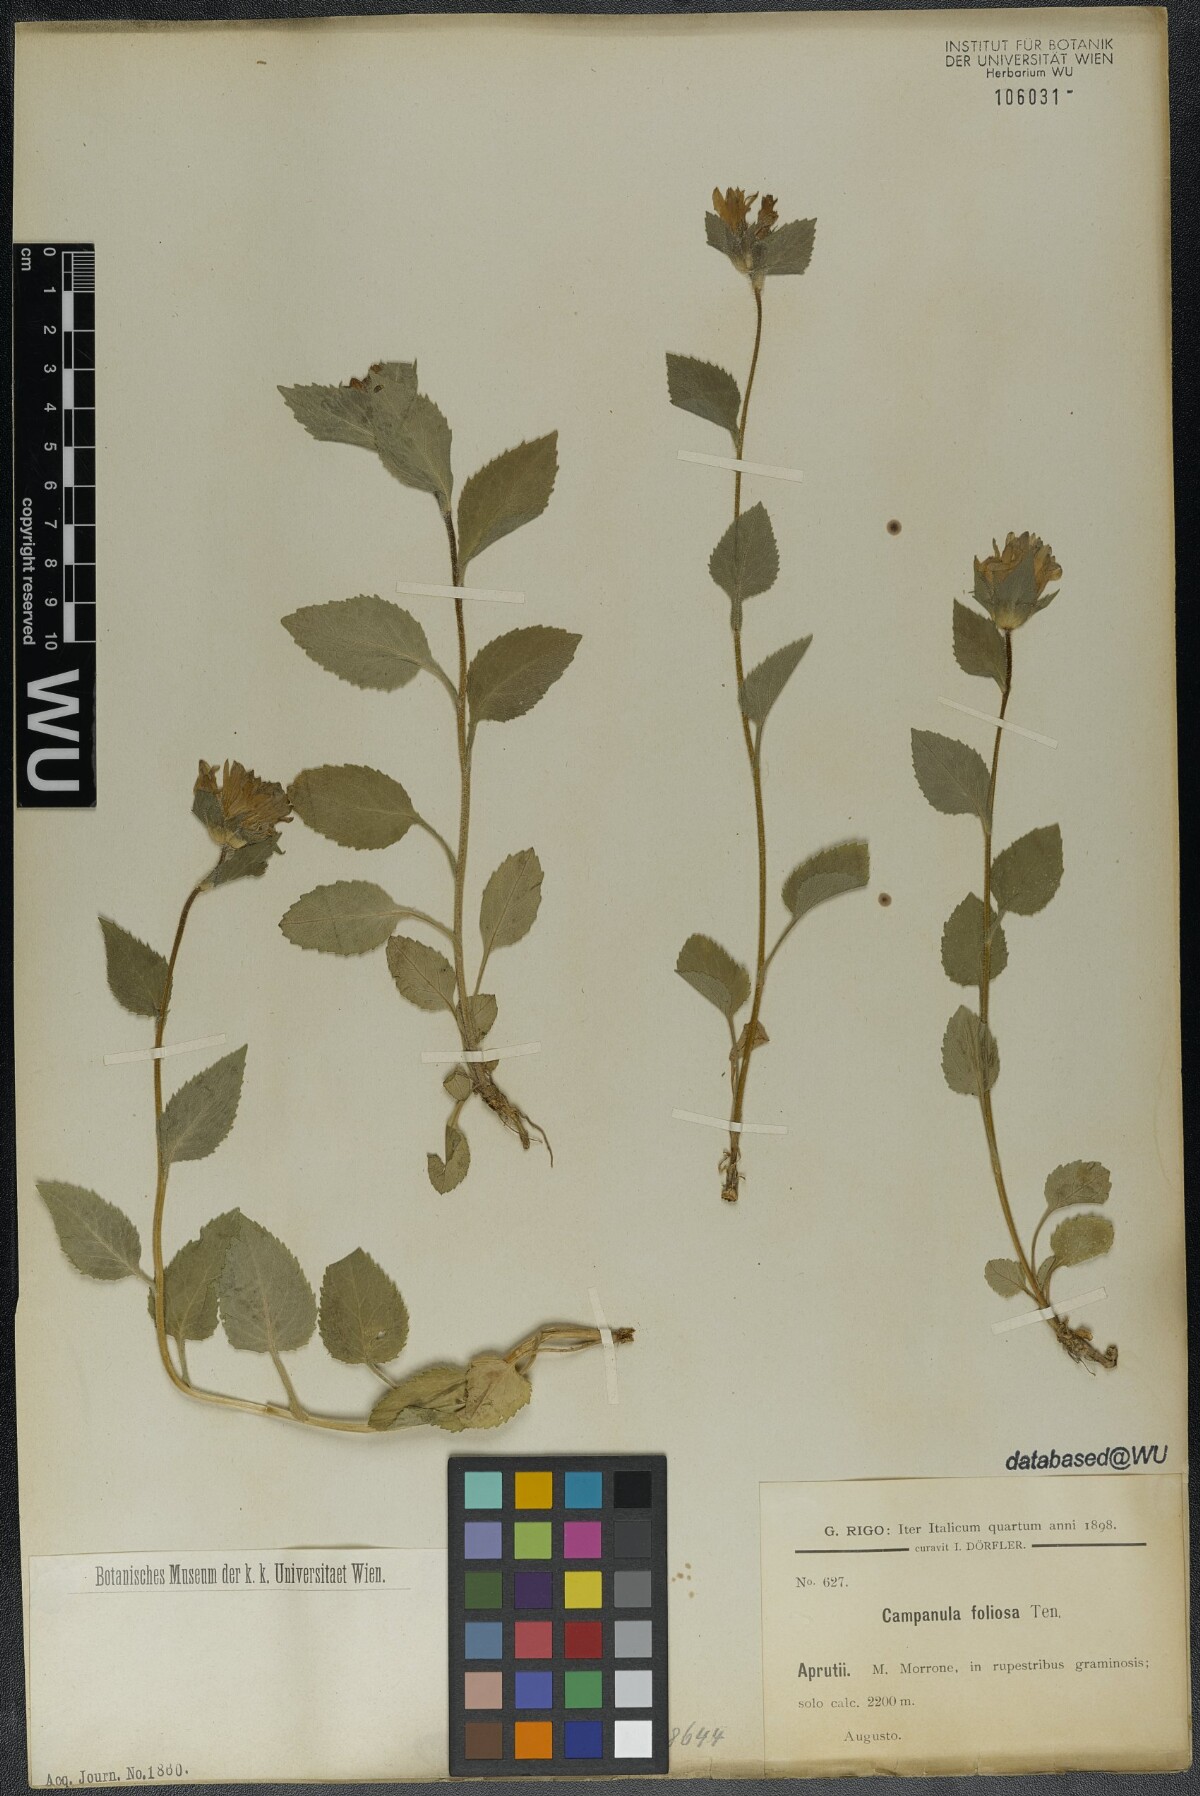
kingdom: Plantae
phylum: Tracheophyta
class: Magnoliopsida
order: Asterales
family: Campanulaceae
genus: Campanula
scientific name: Campanula foliosa
